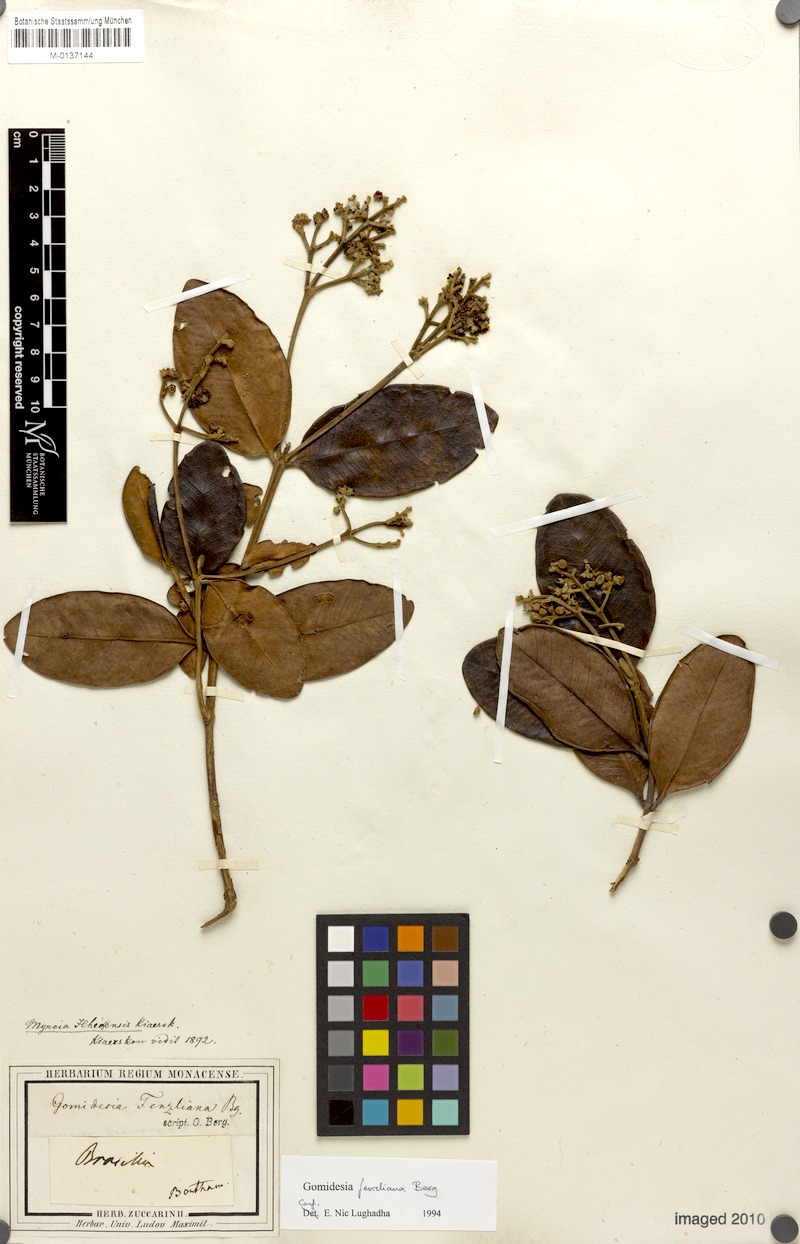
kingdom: Plantae
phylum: Tracheophyta
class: Magnoliopsida
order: Myrtales
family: Myrtaceae
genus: Myrcia
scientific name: Myrcia ilheosensis
